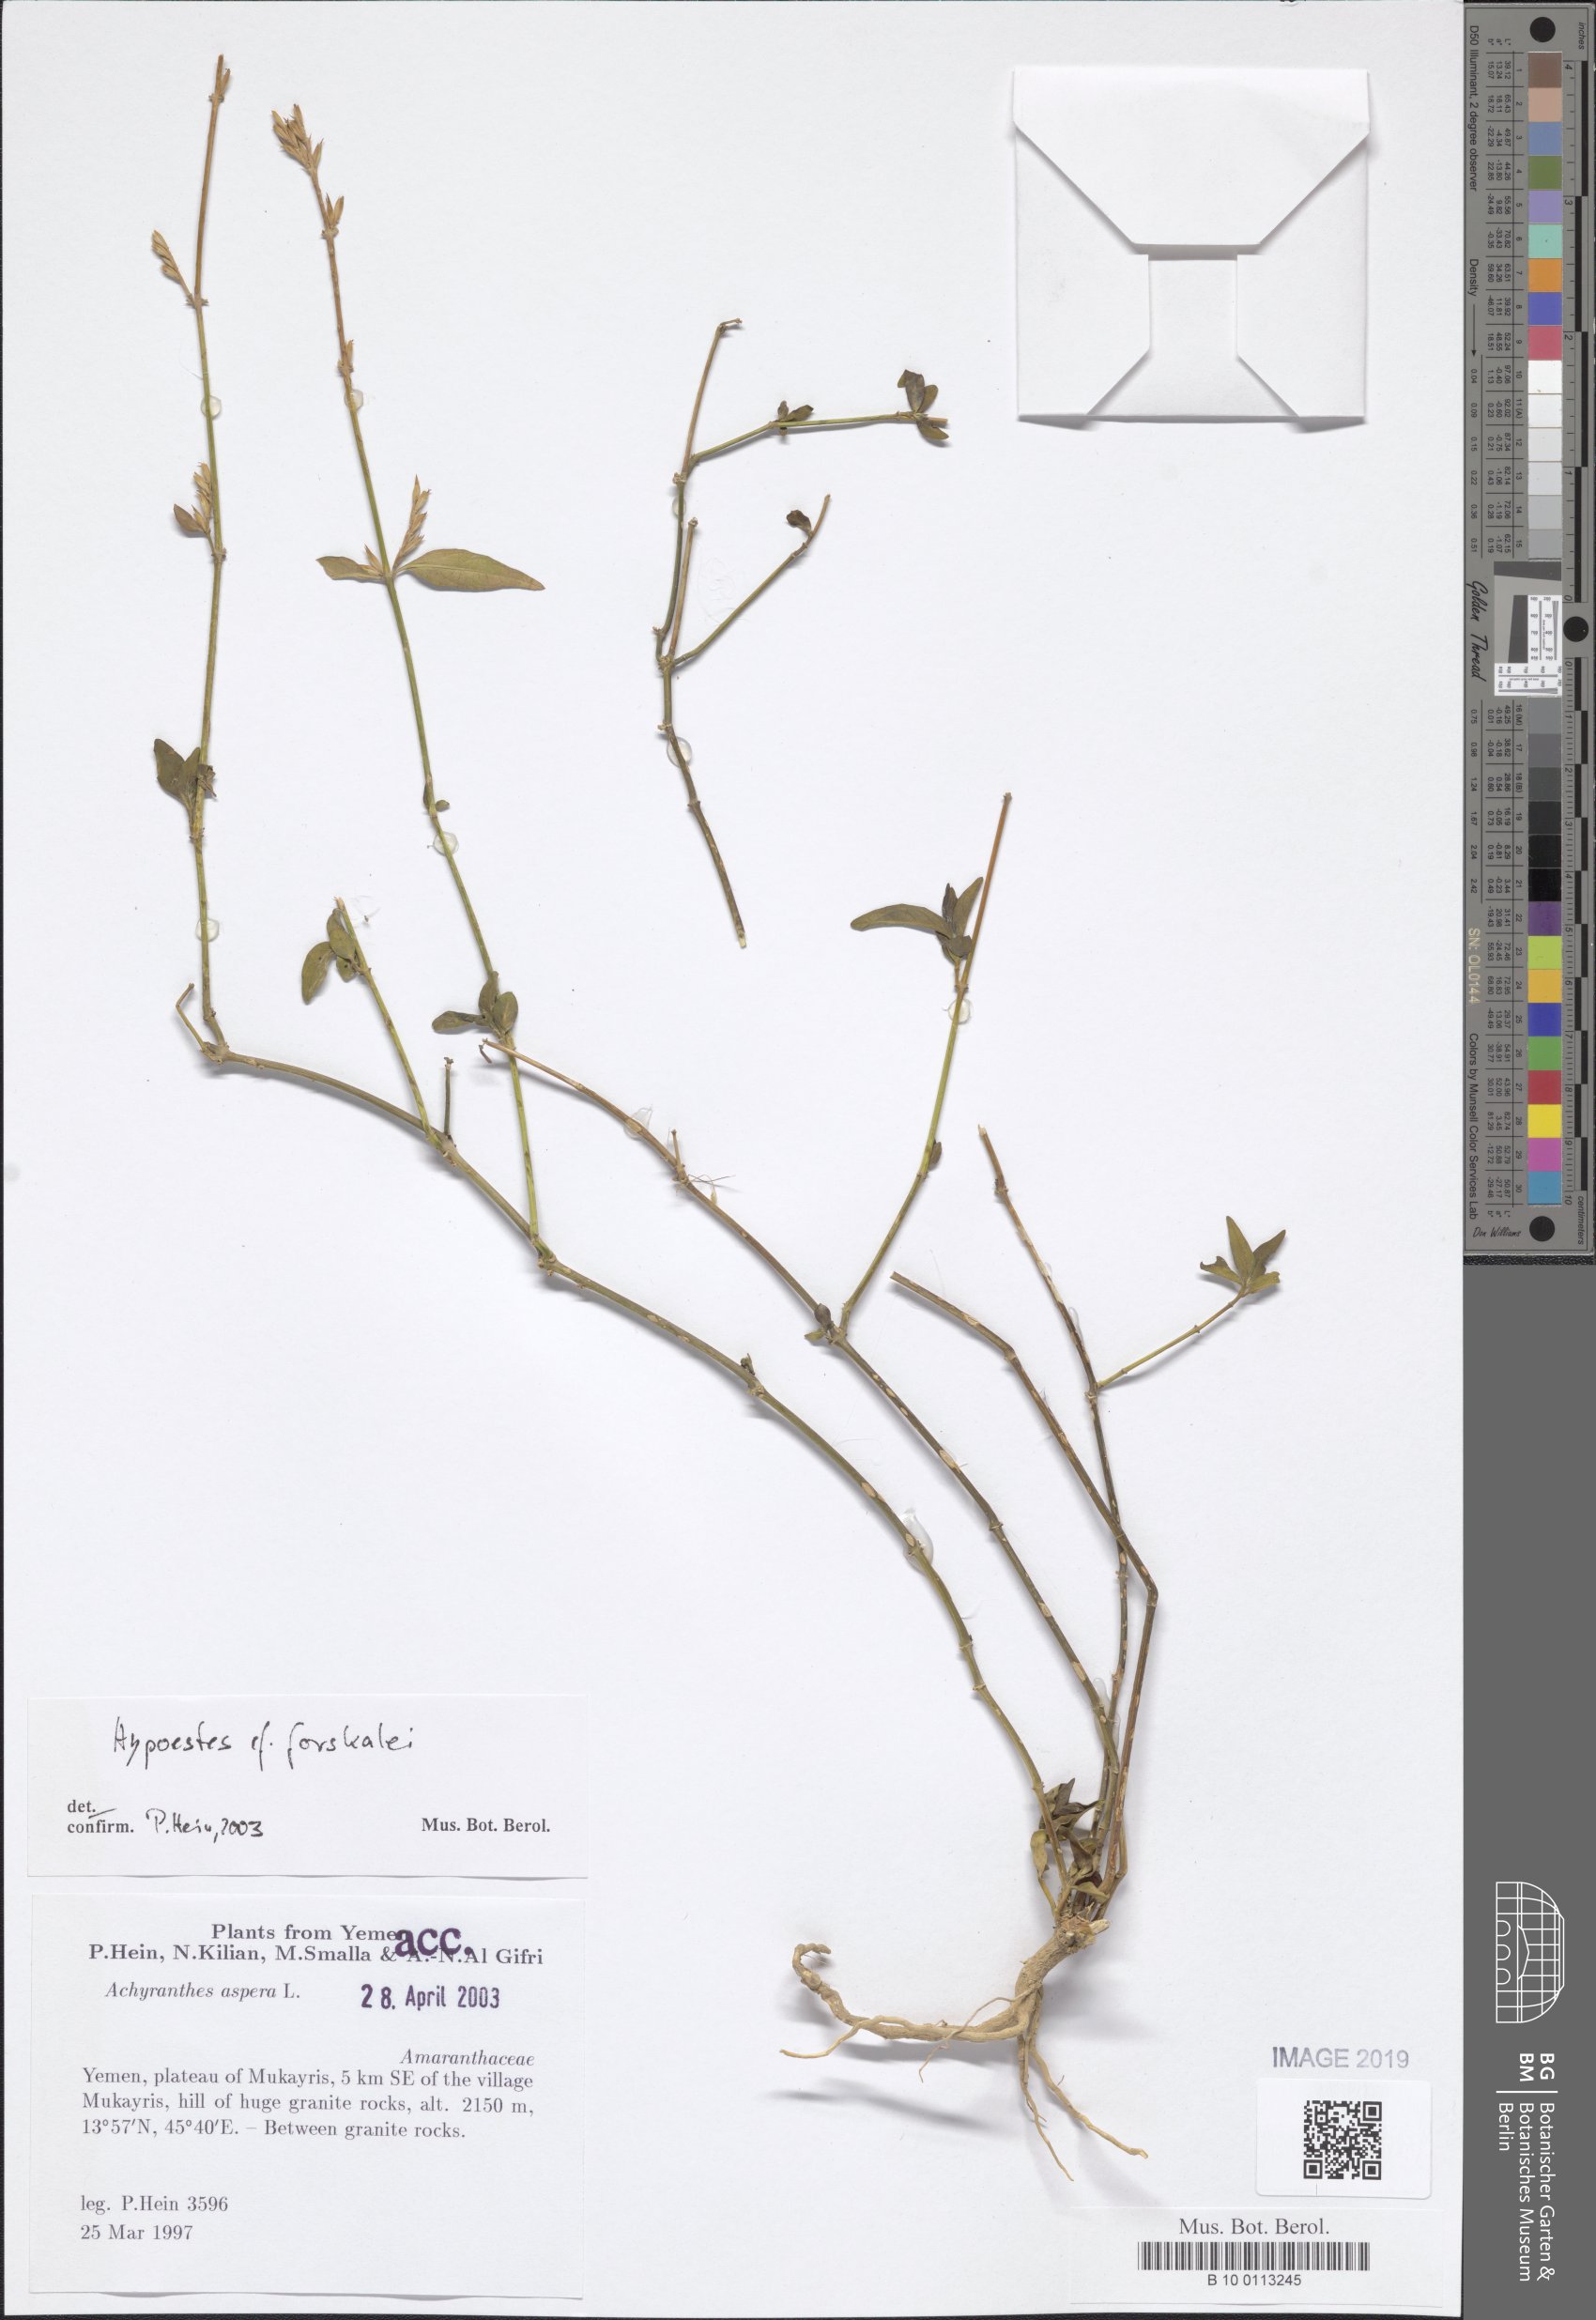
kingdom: Plantae
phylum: Tracheophyta
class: Magnoliopsida
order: Lamiales
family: Acanthaceae
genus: Hypoestes
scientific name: Hypoestes forskaolii
